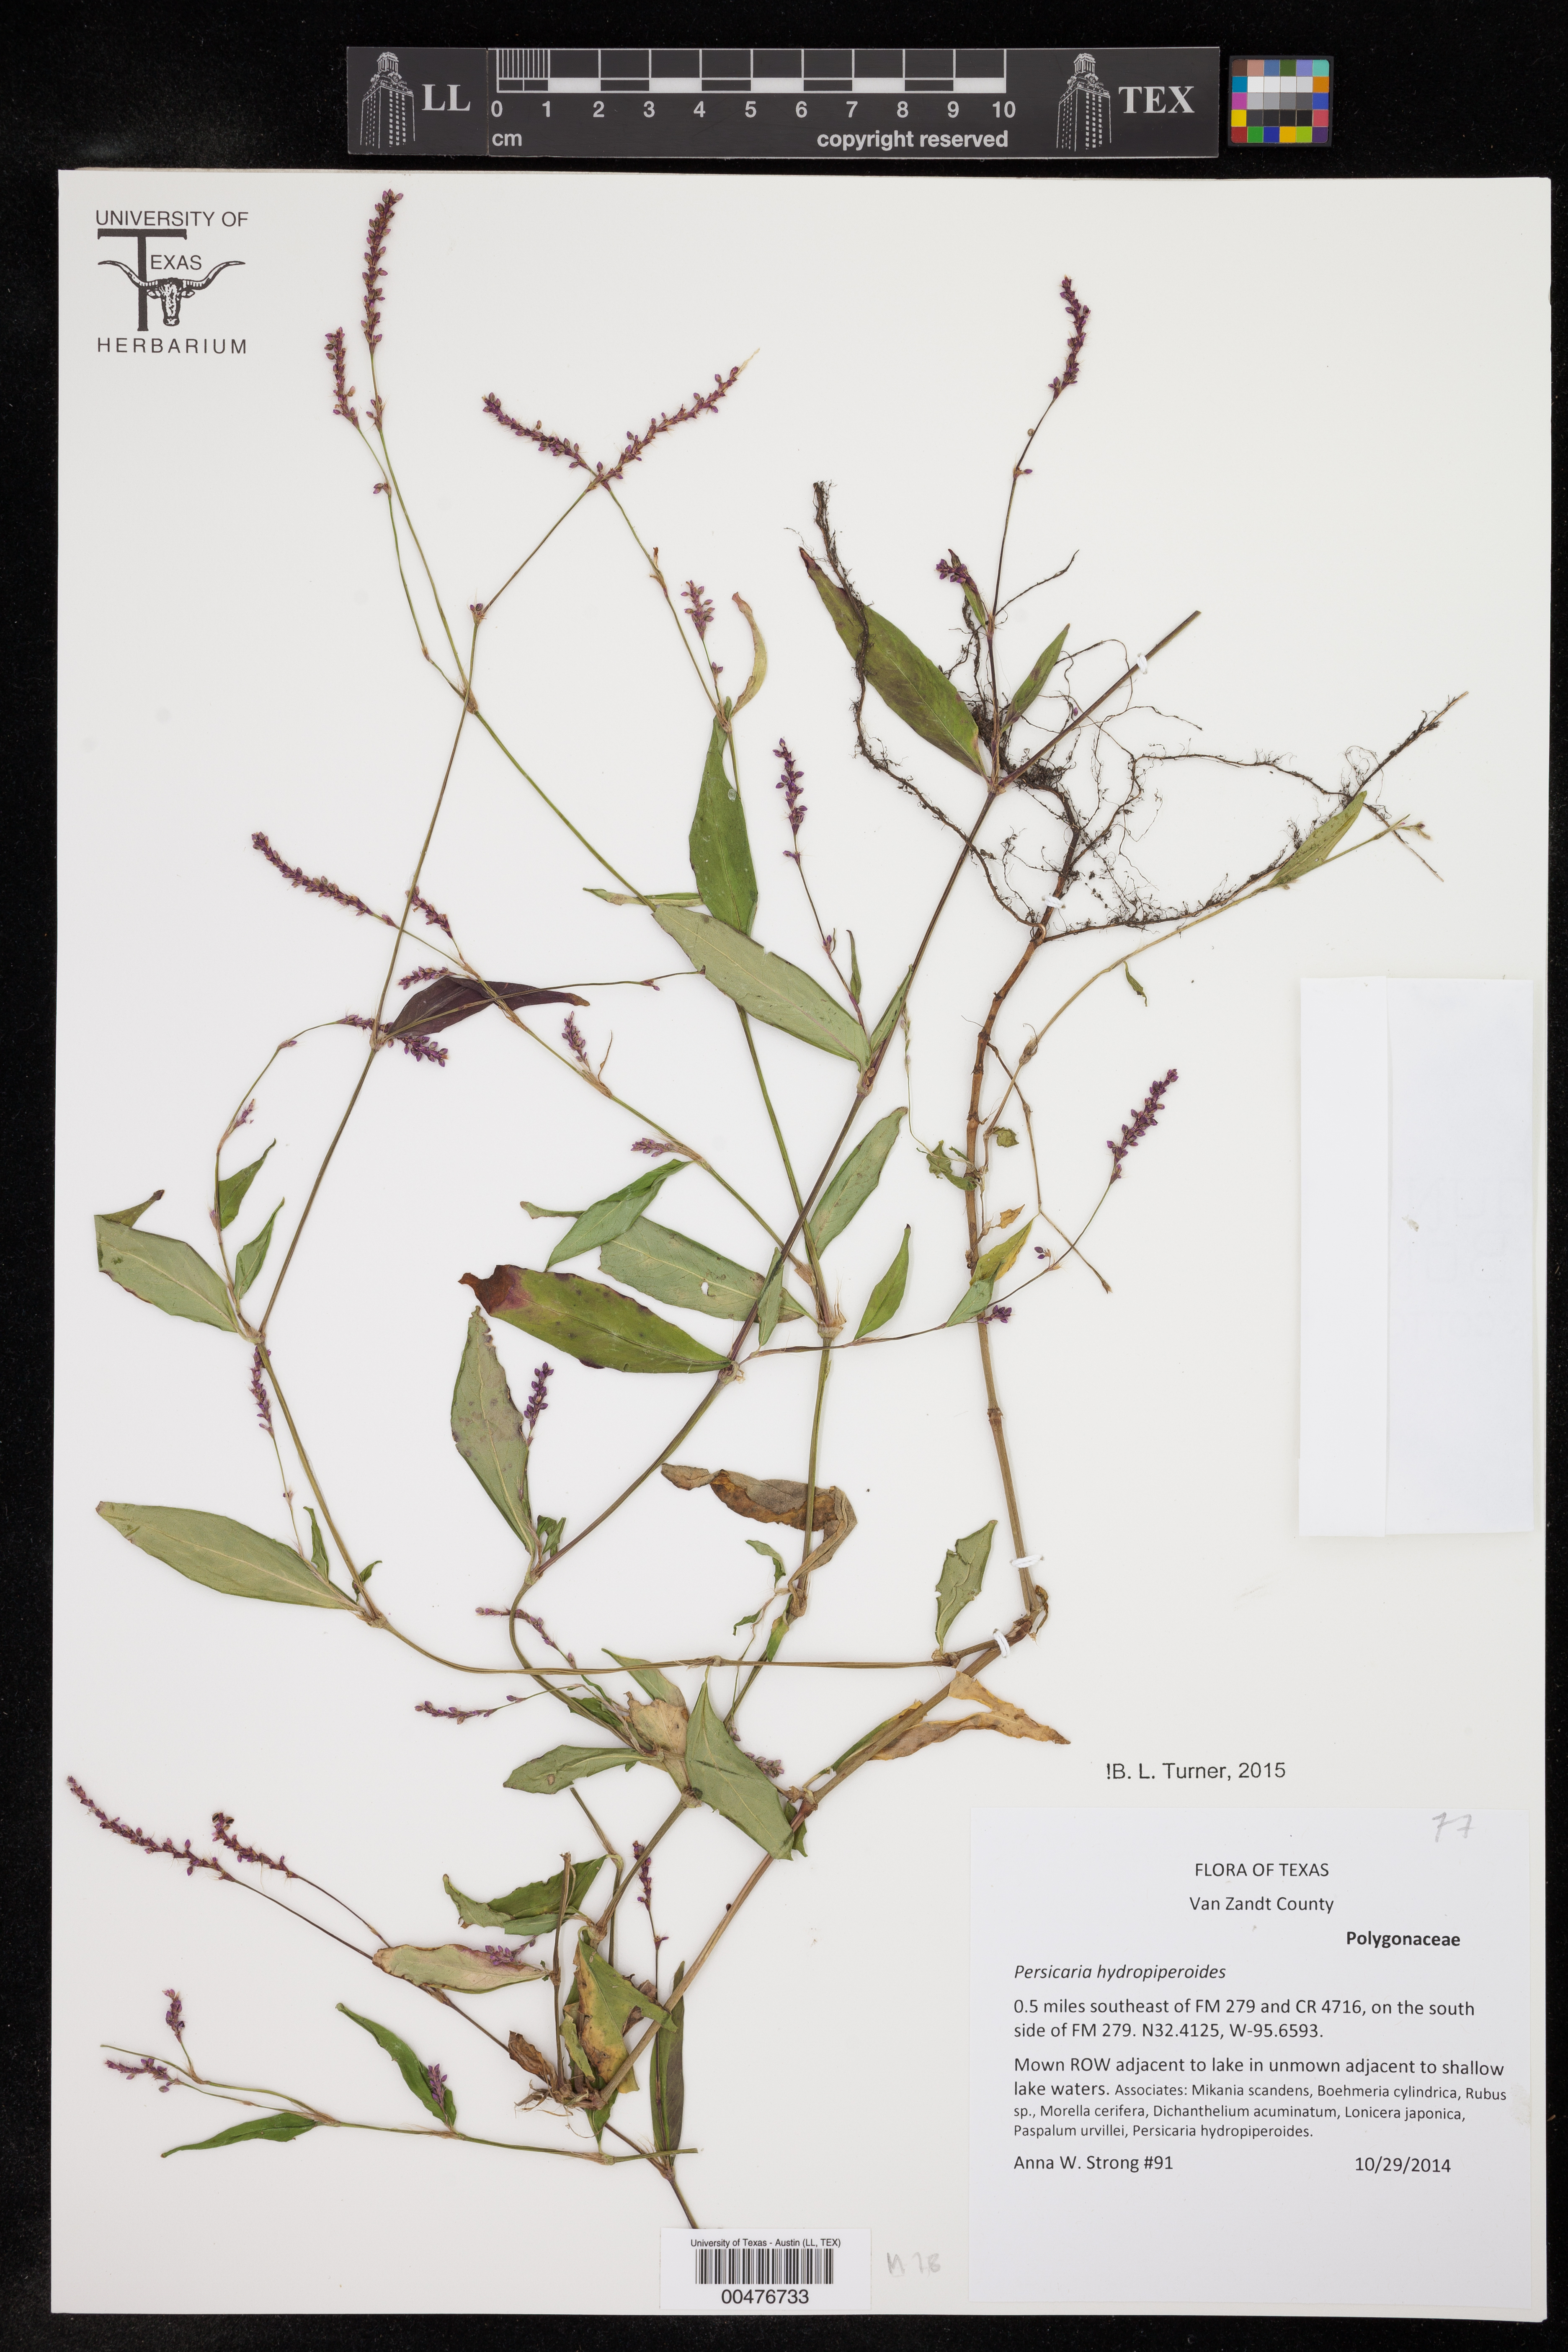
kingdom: Plantae
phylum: Tracheophyta
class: Magnoliopsida
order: Caryophyllales
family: Polygonaceae
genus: Persicaria
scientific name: Persicaria hydropiperoides
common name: Swamp smartweed
